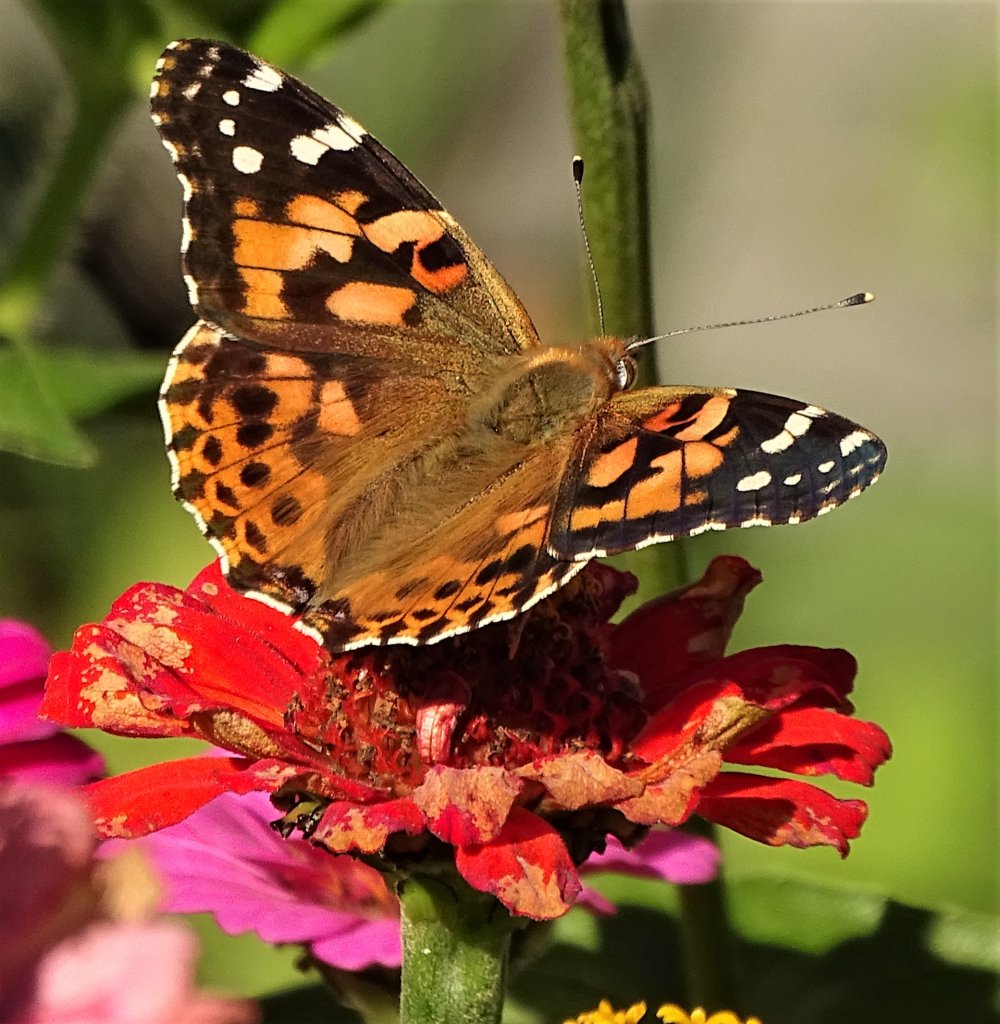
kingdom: Animalia
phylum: Arthropoda
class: Insecta
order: Lepidoptera
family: Nymphalidae
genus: Vanessa
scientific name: Vanessa cardui
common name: Painted Lady
